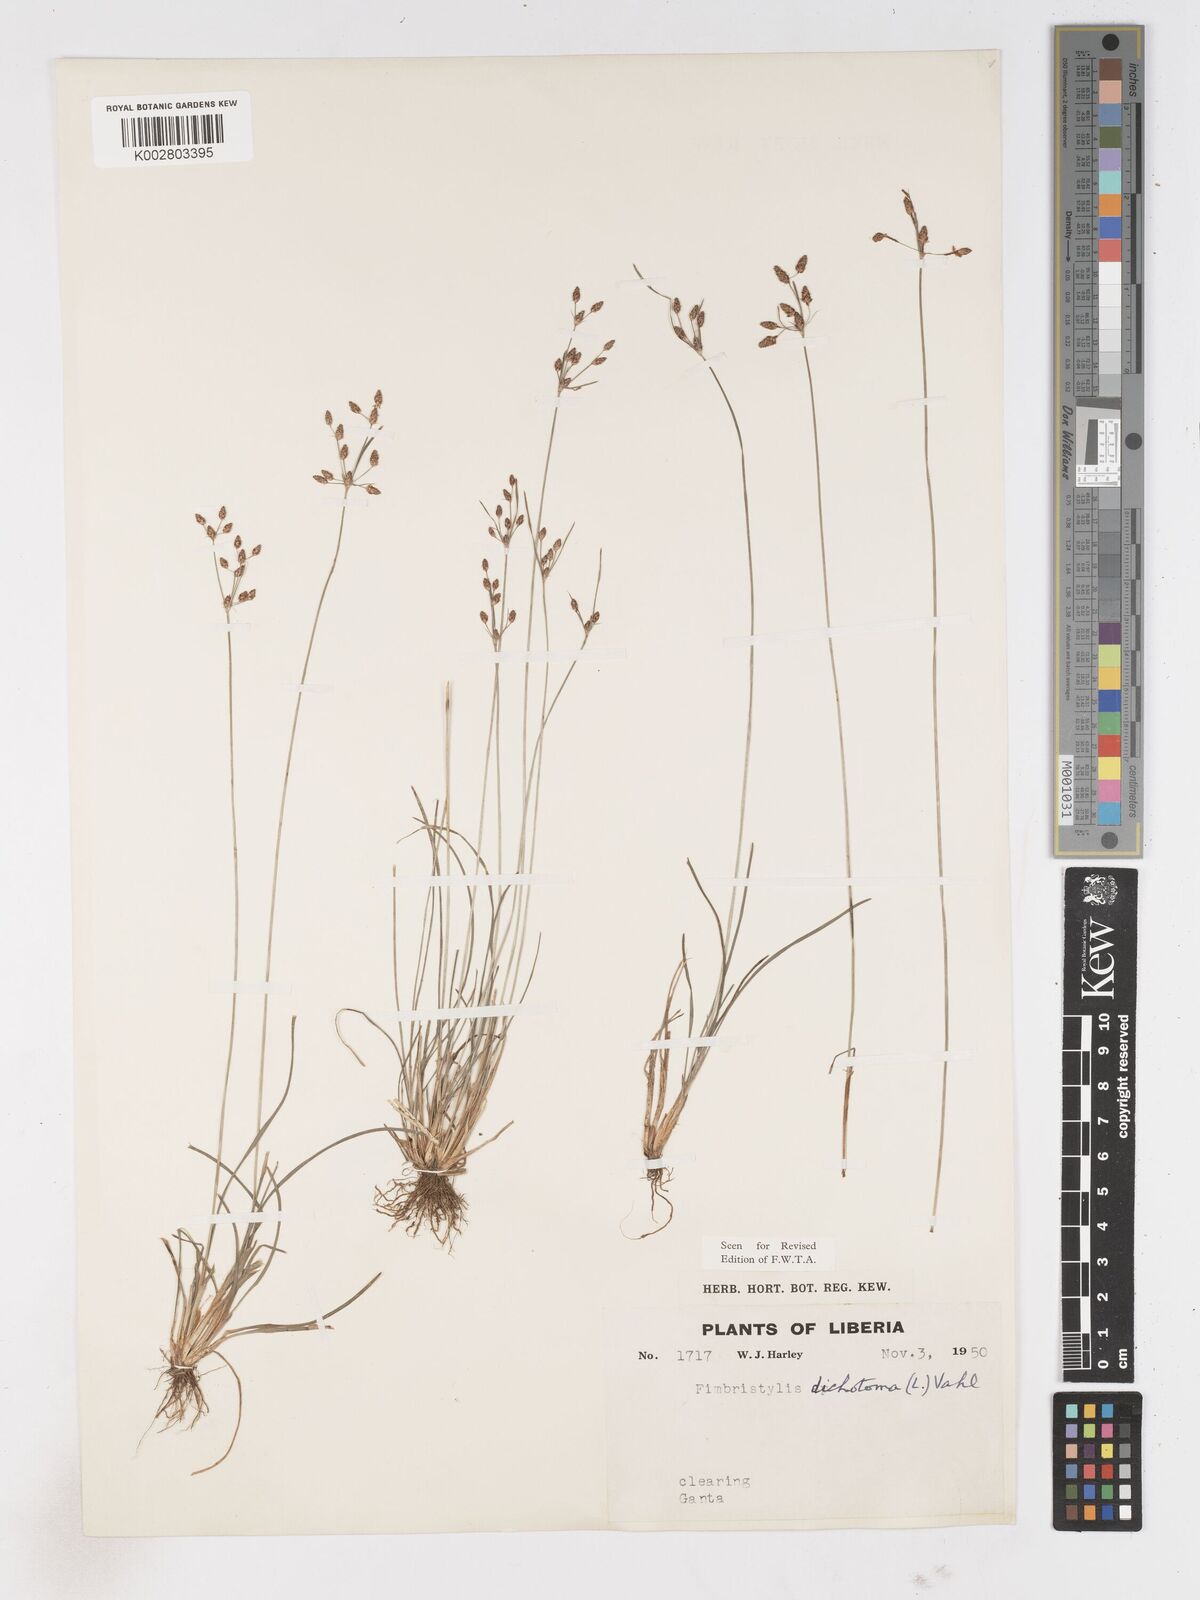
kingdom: Plantae
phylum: Tracheophyta
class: Liliopsida
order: Poales
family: Cyperaceae
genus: Fimbristylis
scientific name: Fimbristylis dichotoma
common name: Forked fimbry
